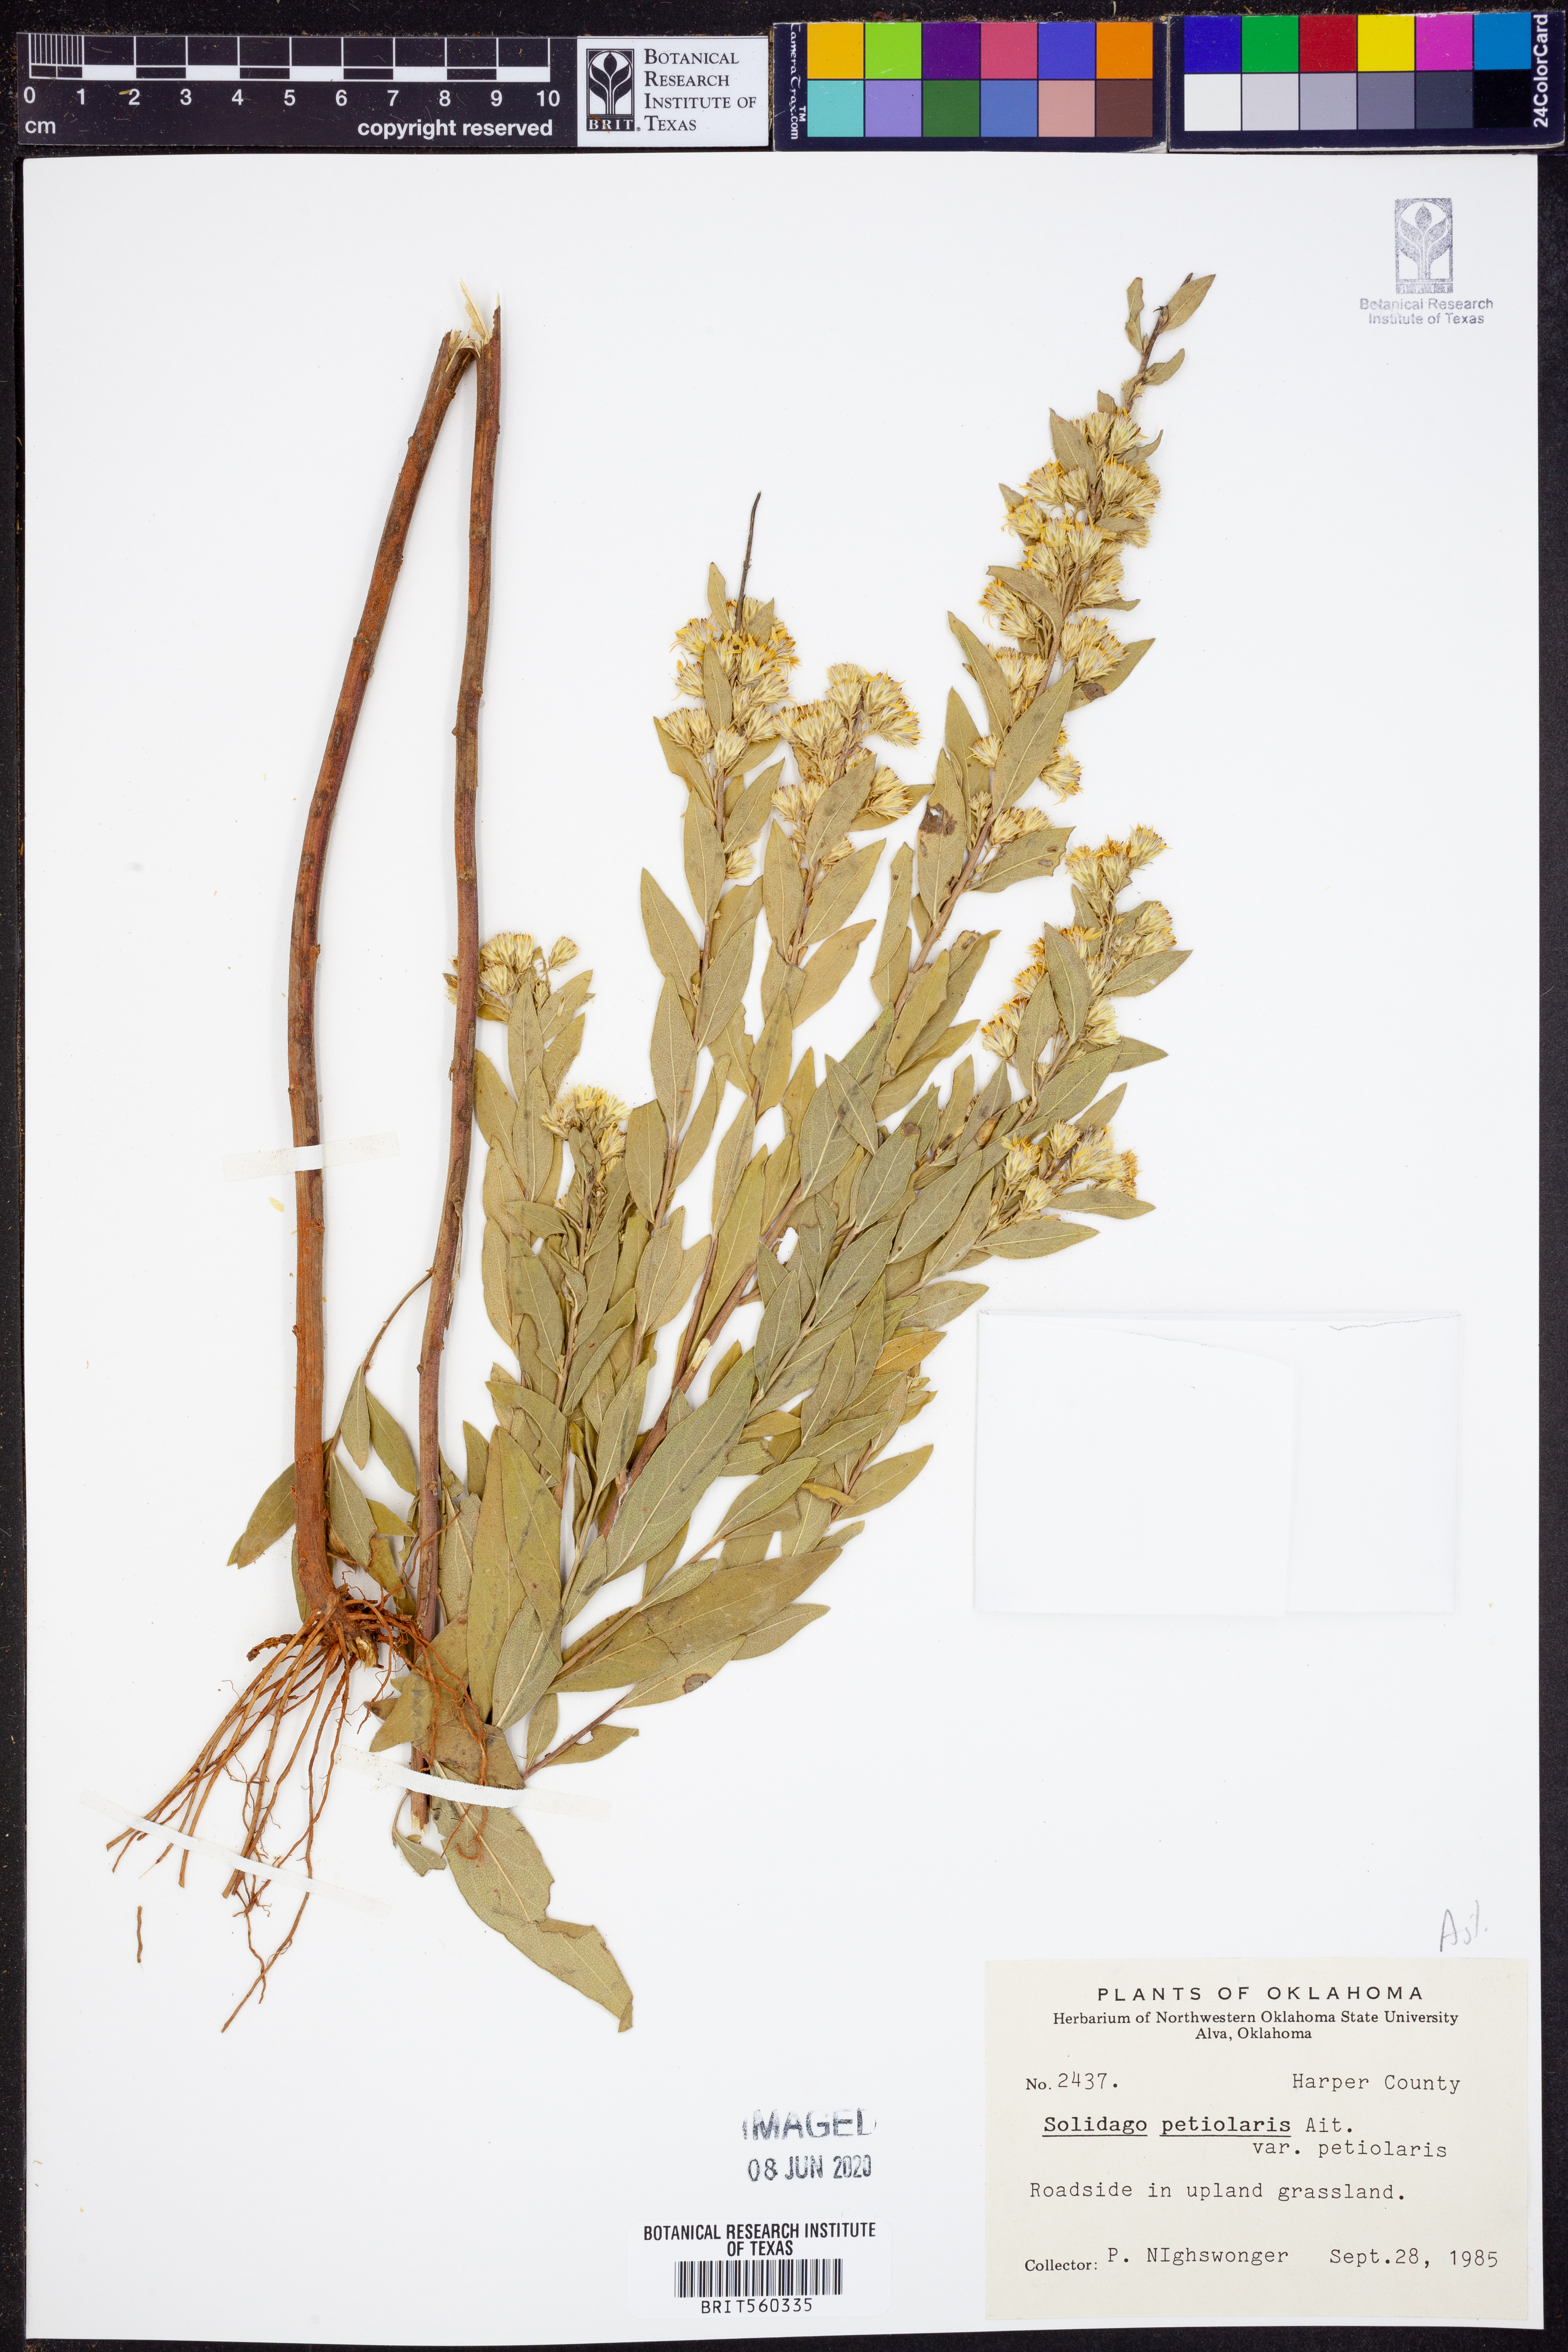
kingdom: Plantae
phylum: Tracheophyta
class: Magnoliopsida
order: Asterales
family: Asteraceae
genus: Solidago
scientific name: Solidago petiolaris
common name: Downy ragged goldenrod
